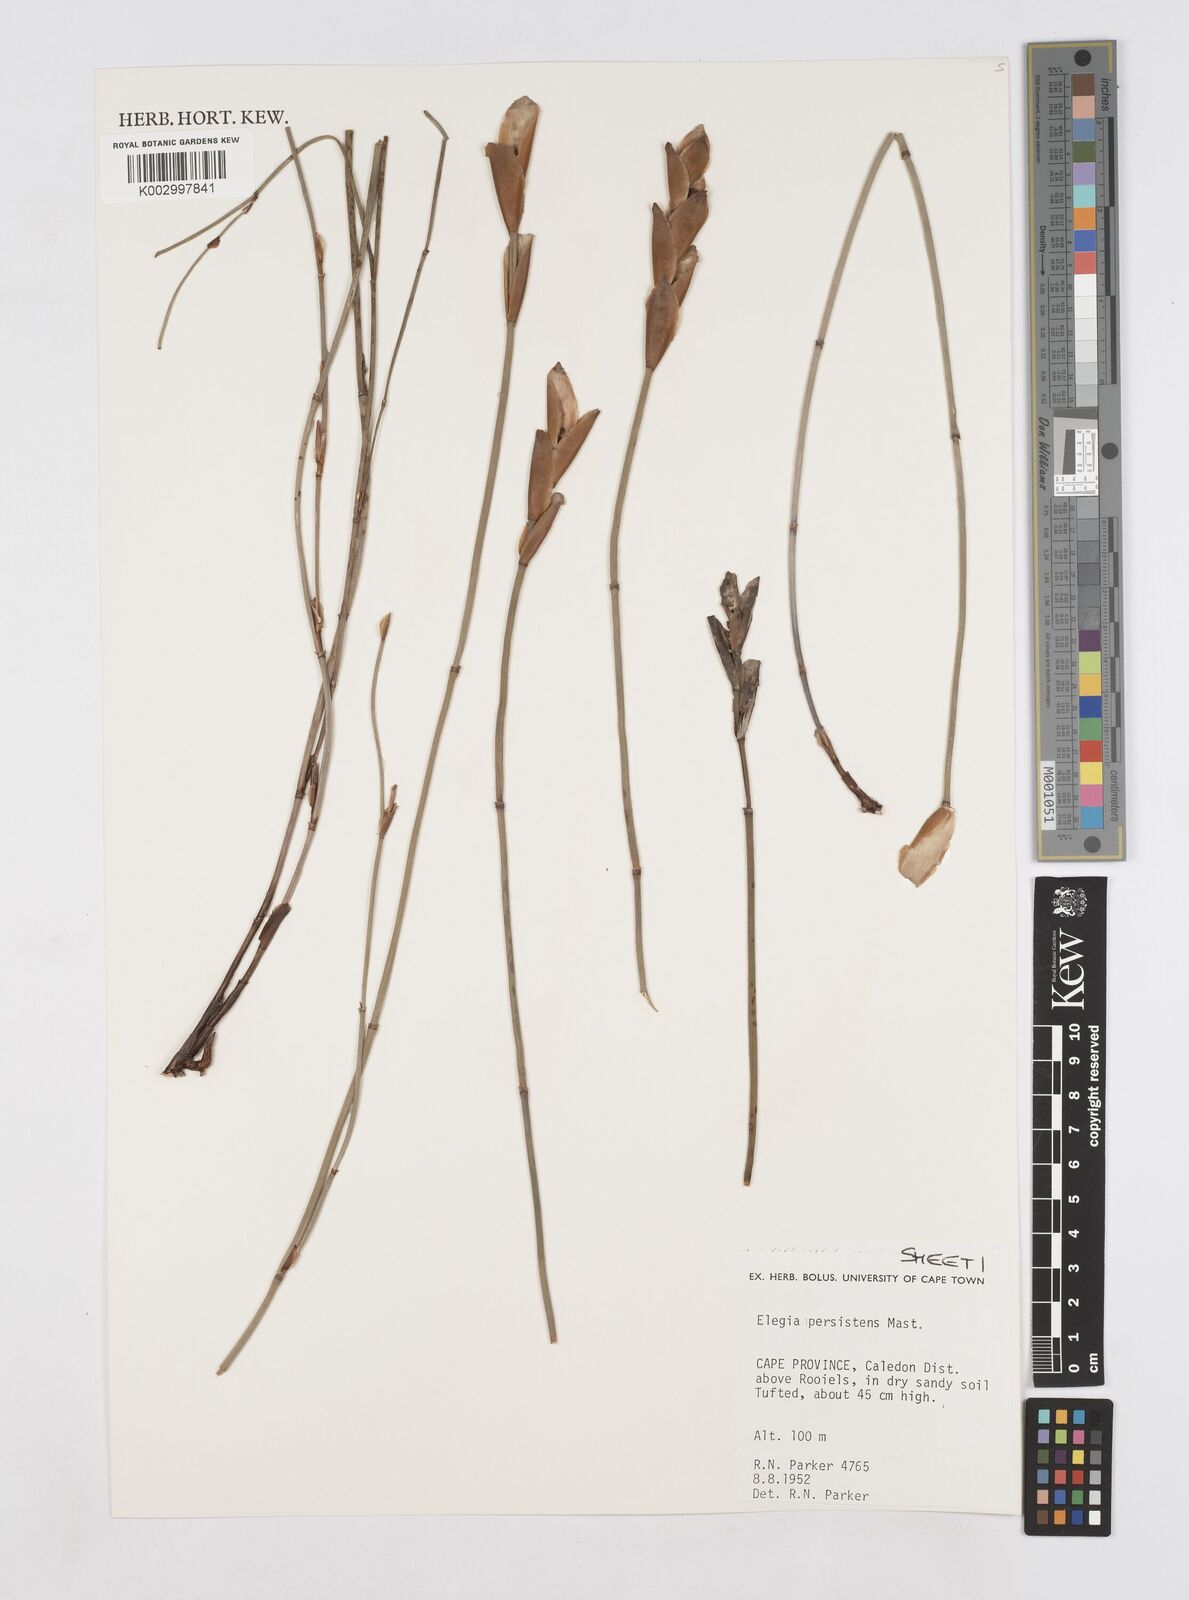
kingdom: Plantae
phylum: Tracheophyta
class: Liliopsida
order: Poales
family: Restionaceae
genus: Elegia
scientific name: Elegia persistens
